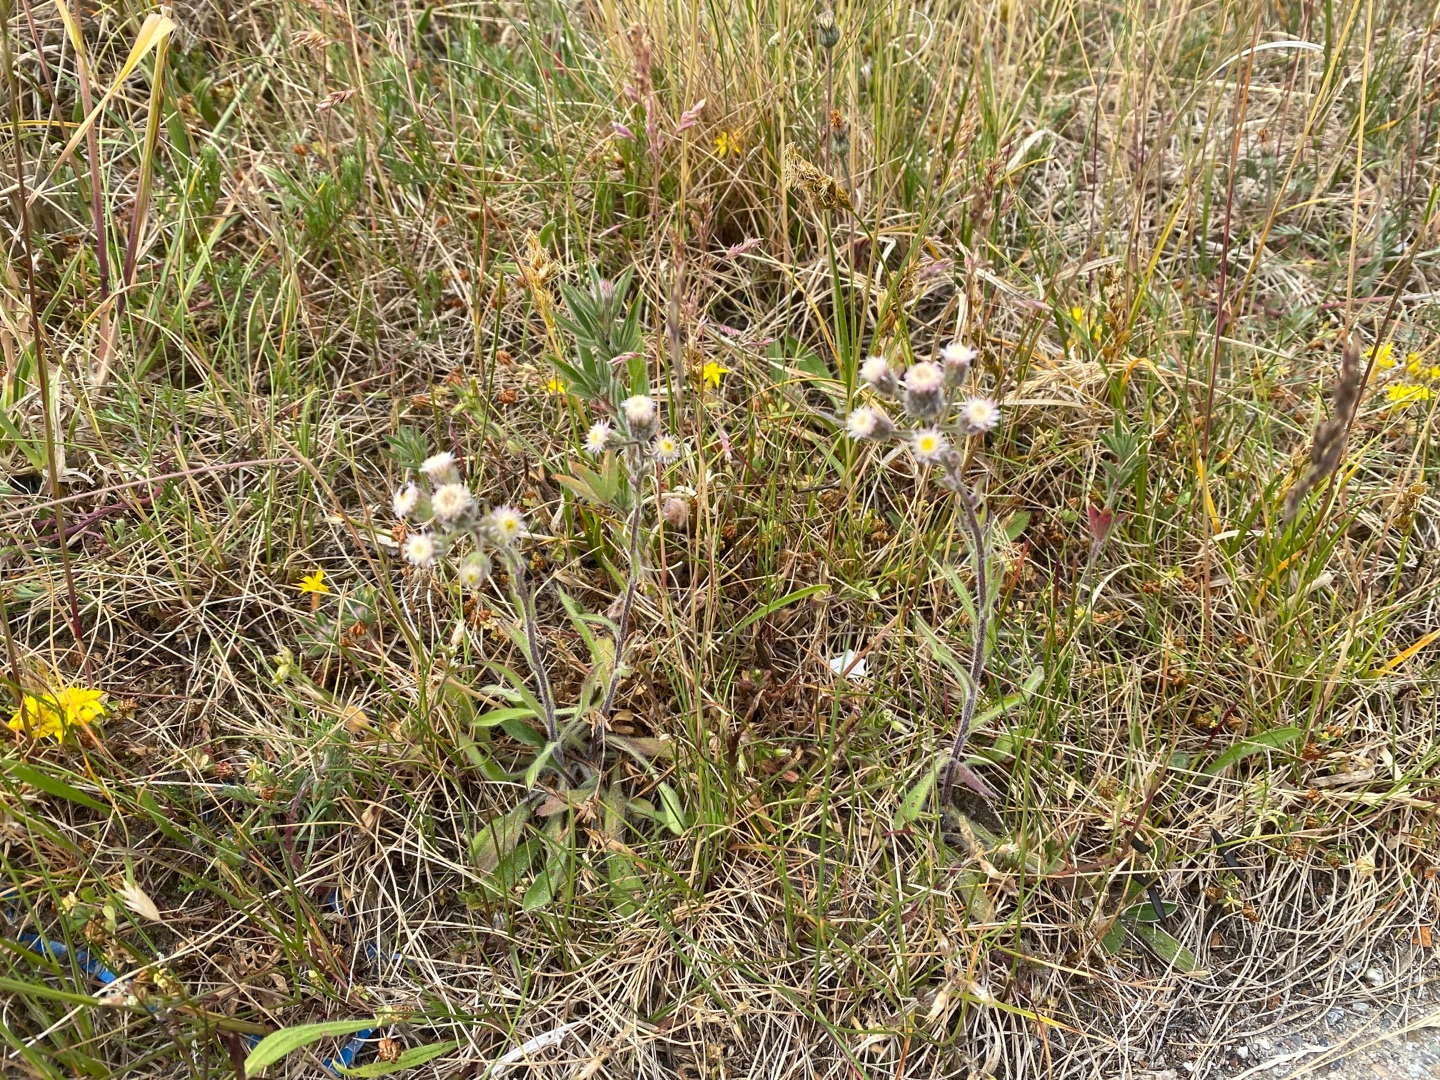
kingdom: Plantae
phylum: Tracheophyta
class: Magnoliopsida
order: Asterales
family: Asteraceae
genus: Erigeron
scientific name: Erigeron acris
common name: Bitter bakkestjerne
